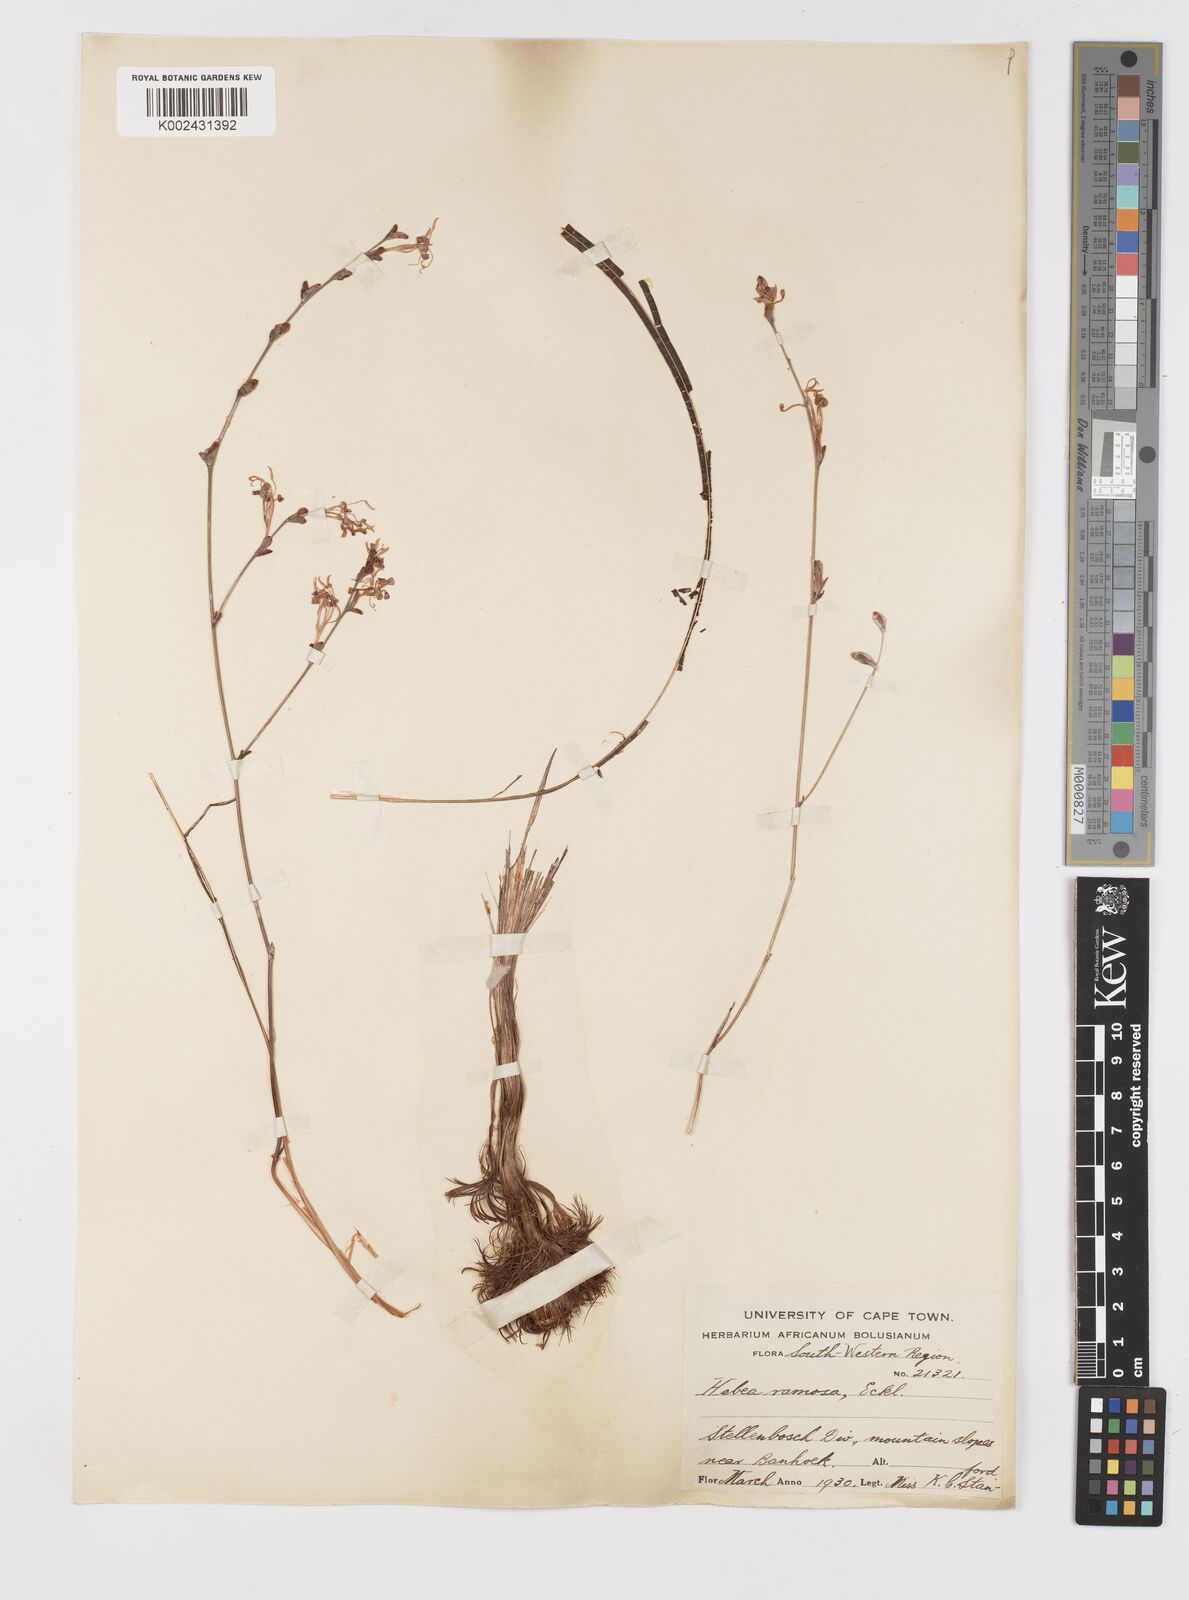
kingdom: Plantae
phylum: Tracheophyta
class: Liliopsida
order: Asparagales
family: Iridaceae
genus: Tritoniopsis
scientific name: Tritoniopsis ramosa
